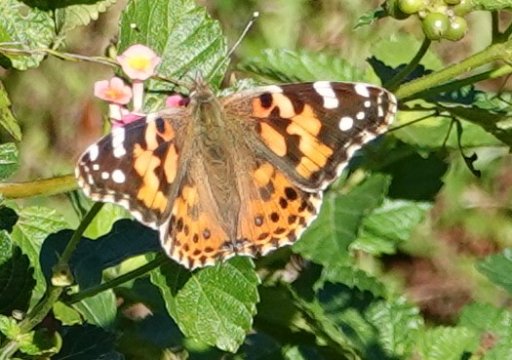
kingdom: Animalia
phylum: Arthropoda
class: Insecta
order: Lepidoptera
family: Nymphalidae
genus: Vanessa
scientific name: Vanessa cardui
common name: Painted Lady
